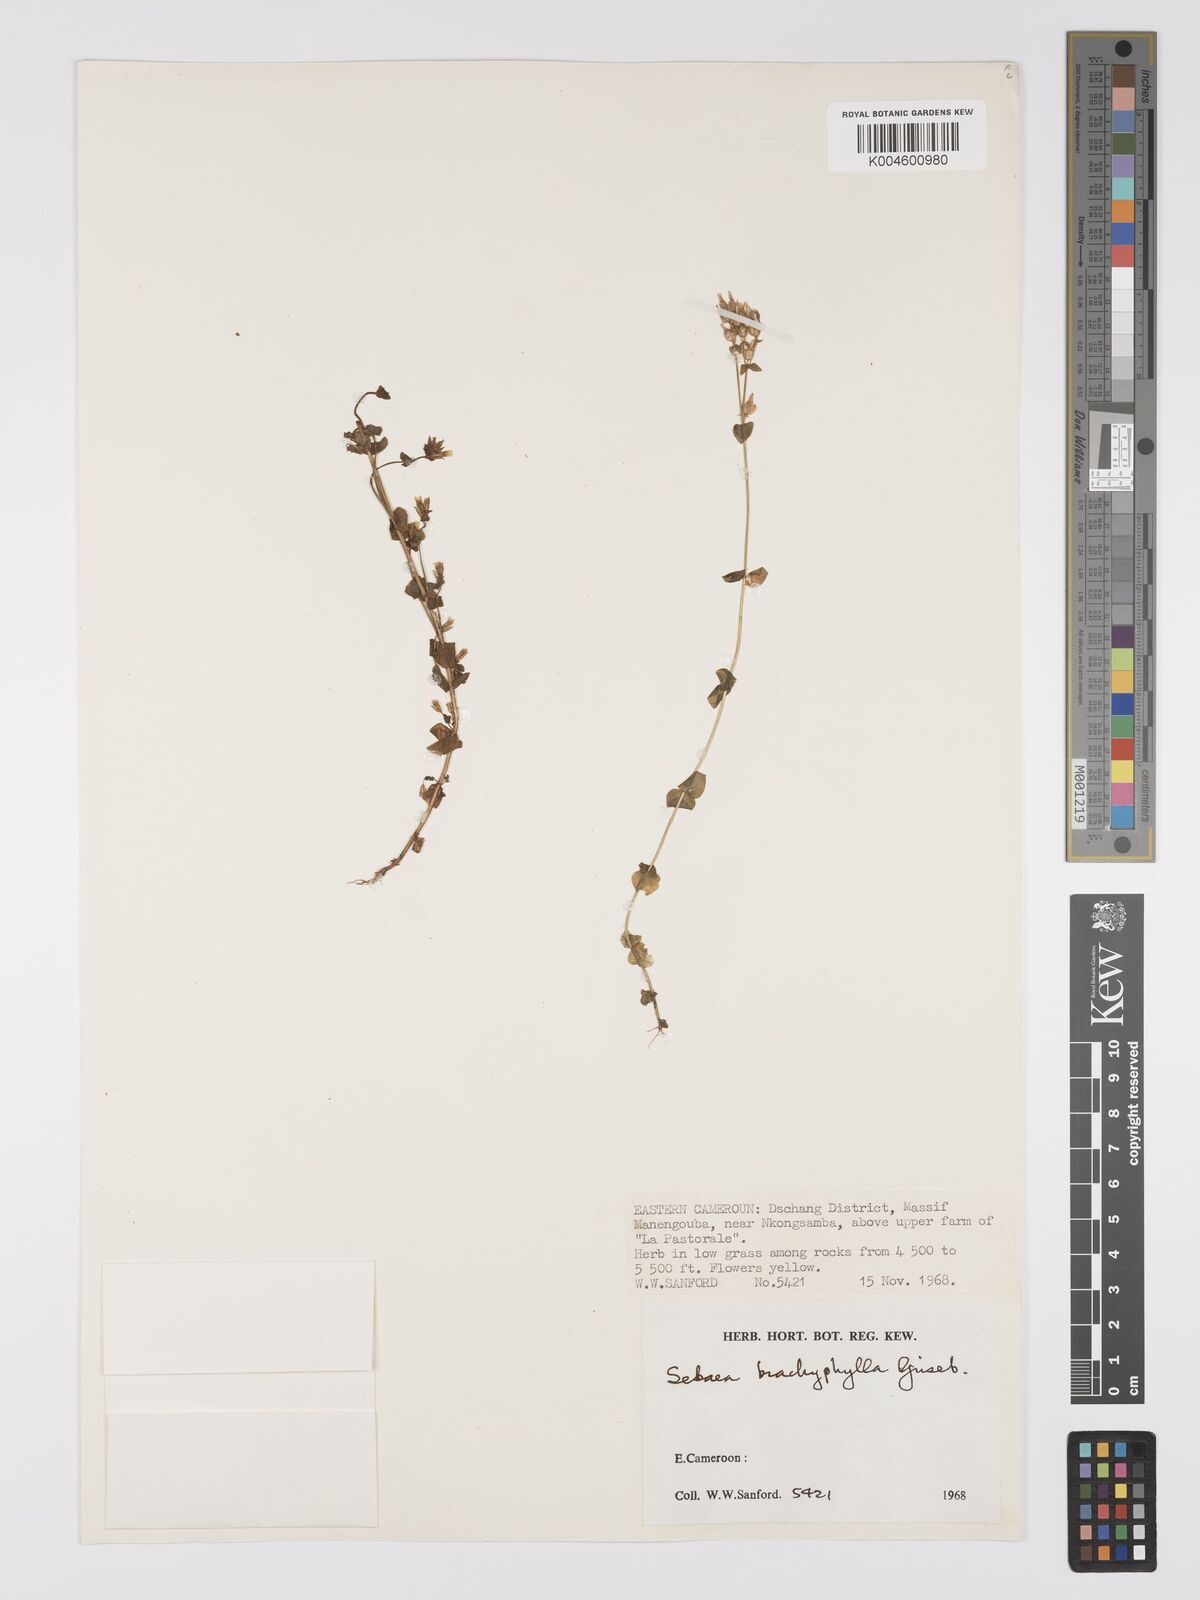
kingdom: Plantae
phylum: Tracheophyta
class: Magnoliopsida
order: Gentianales
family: Gentianaceae
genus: Sebaea
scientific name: Sebaea brachyphylla
